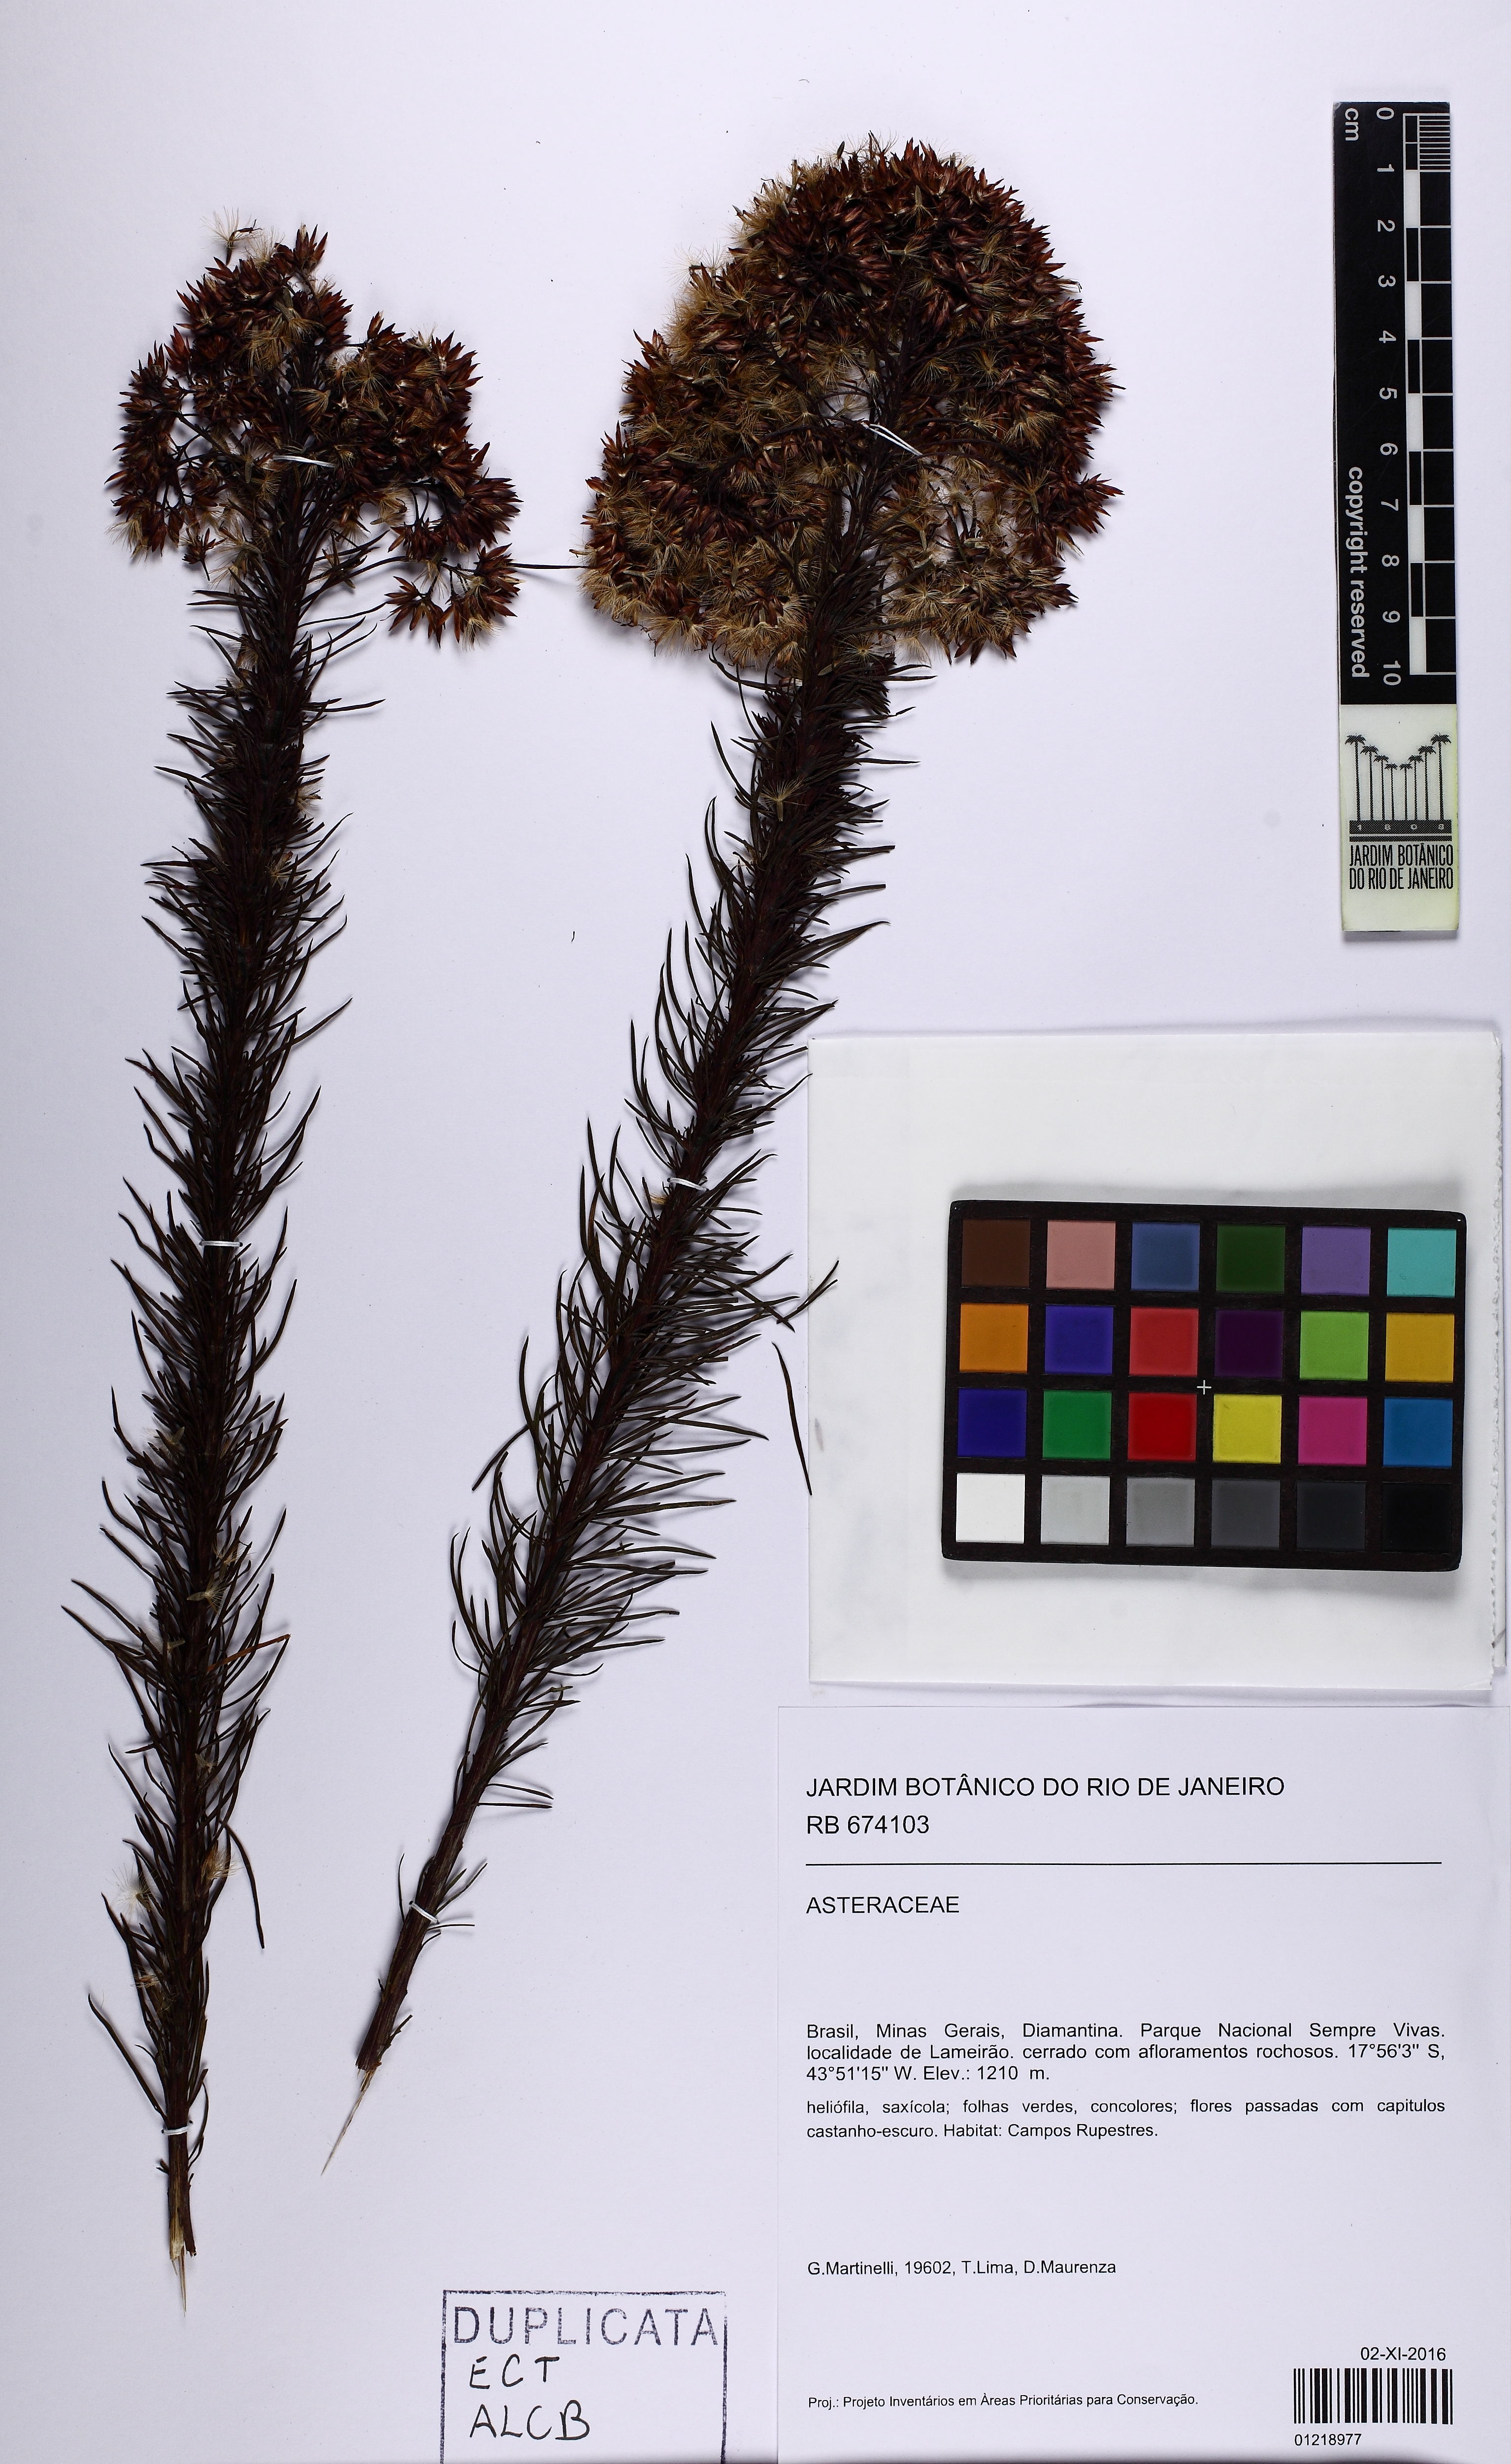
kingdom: Plantae
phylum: Tracheophyta
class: Magnoliopsida
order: Asterales
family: Asteraceae
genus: Pseudobrickellia
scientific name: Pseudobrickellia brasiliensis
